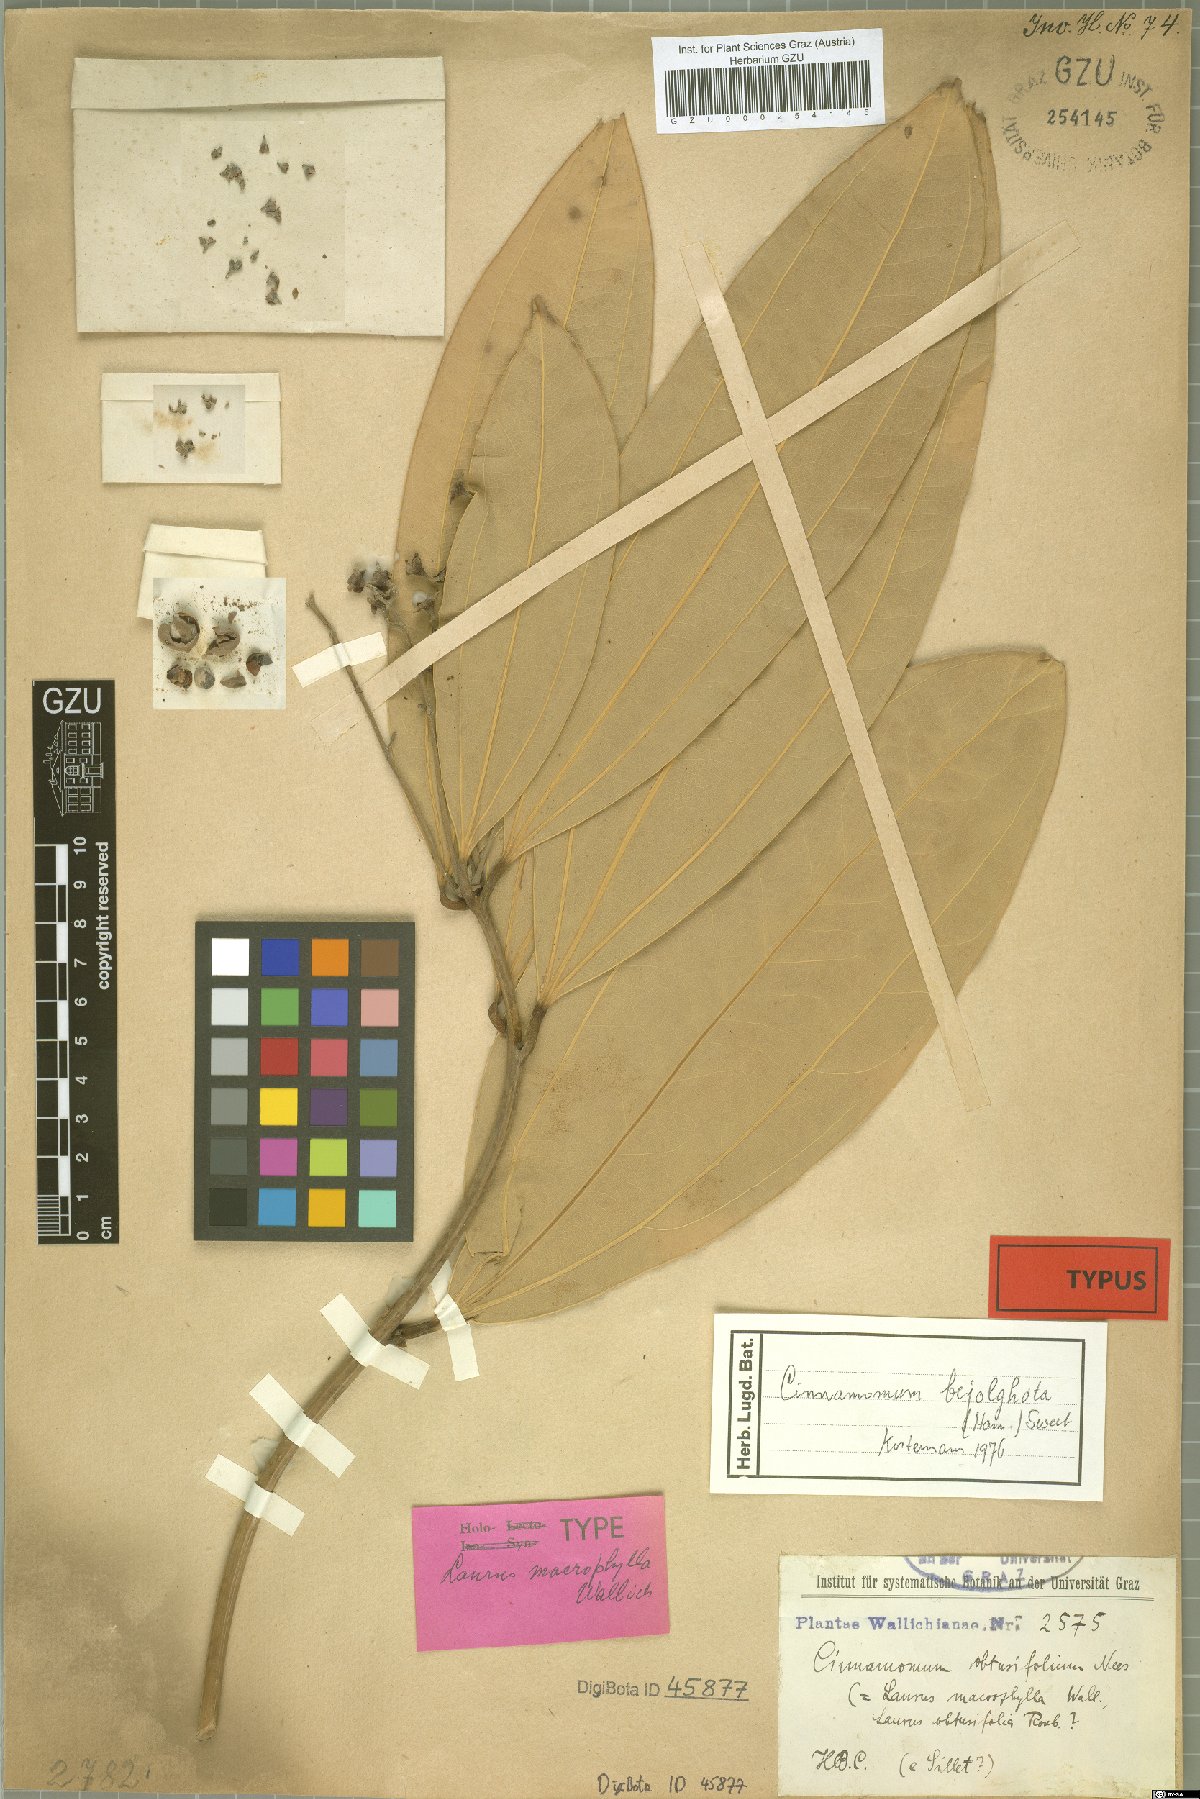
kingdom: Plantae
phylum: Tracheophyta
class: Magnoliopsida
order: Laurales
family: Lauraceae
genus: Cinnamomum
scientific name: Cinnamomum bejolghota
